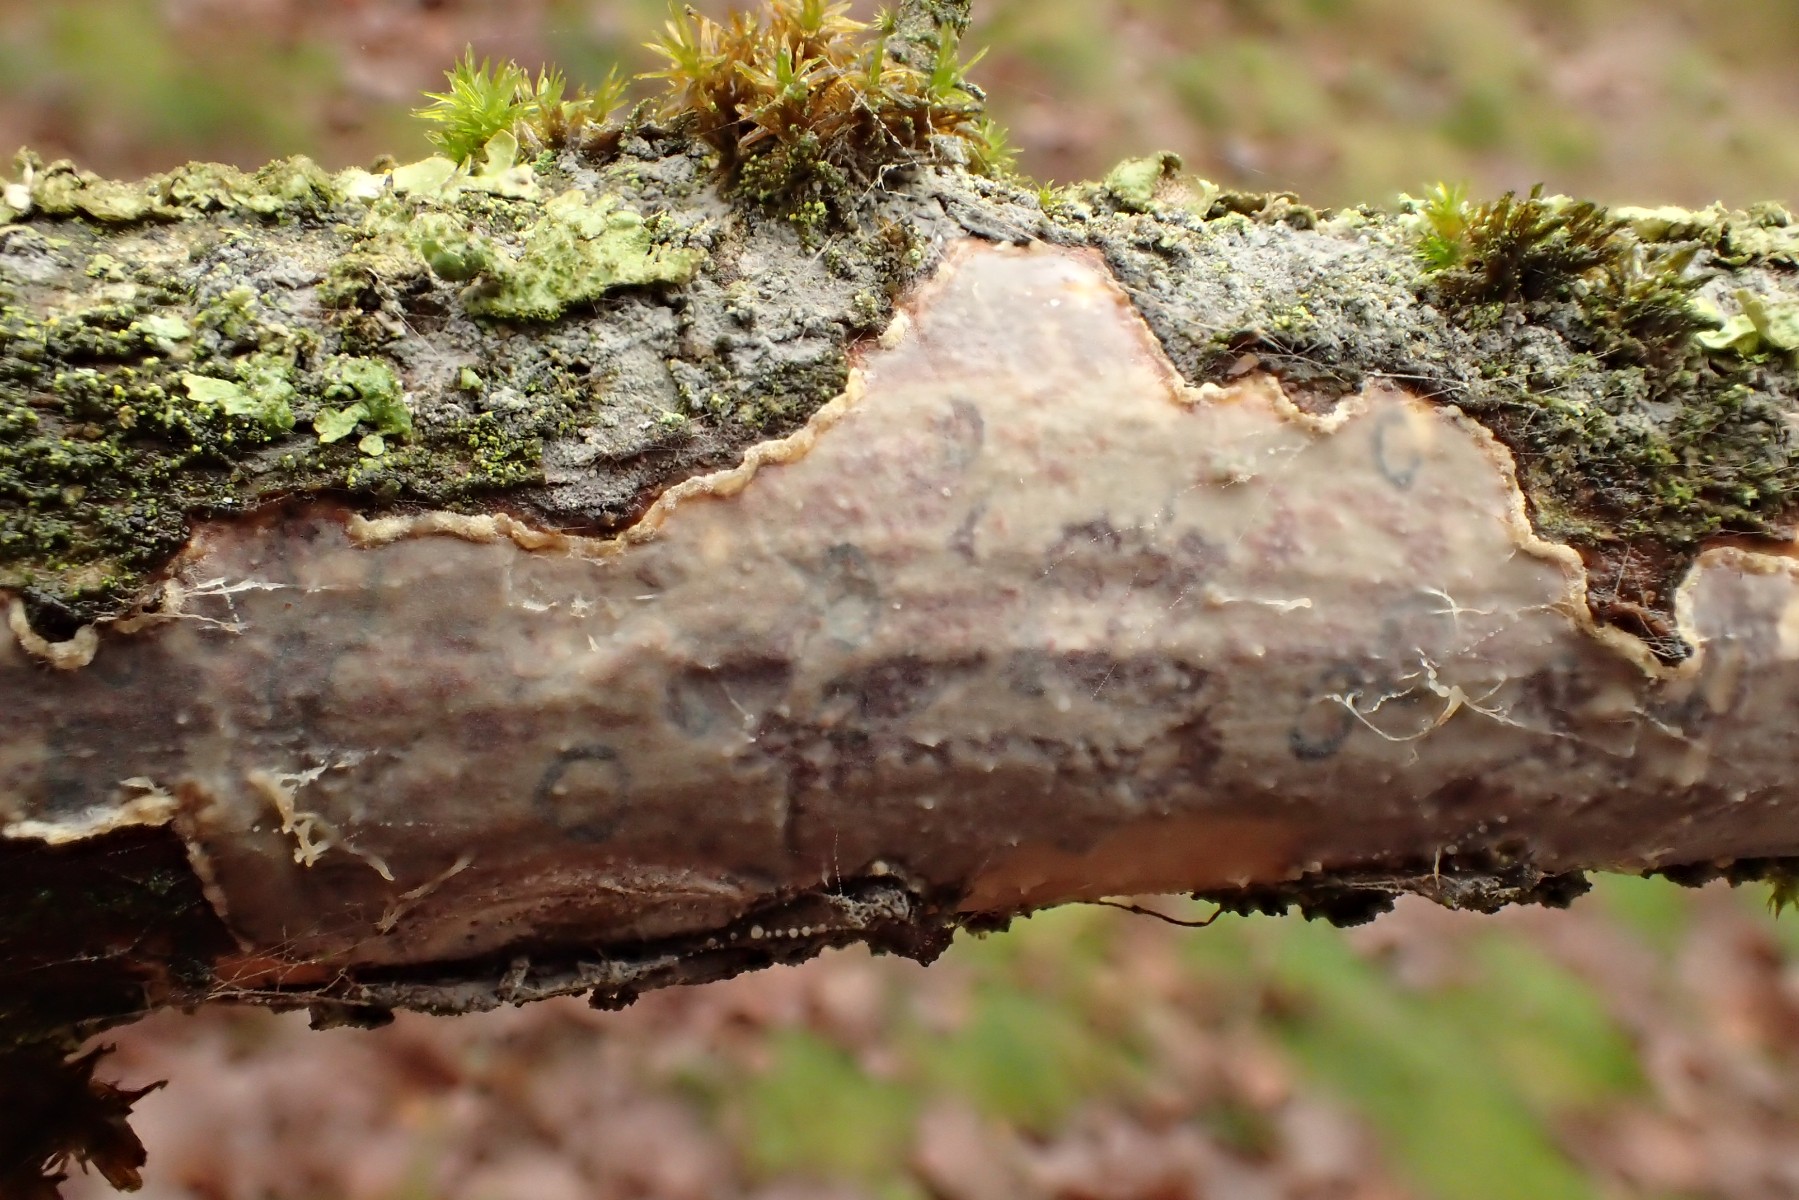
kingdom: Fungi
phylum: Basidiomycota
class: Agaricomycetes
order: Corticiales
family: Vuilleminiaceae
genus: Vuilleminia
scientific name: Vuilleminia comedens
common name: almindelig barksprænger
